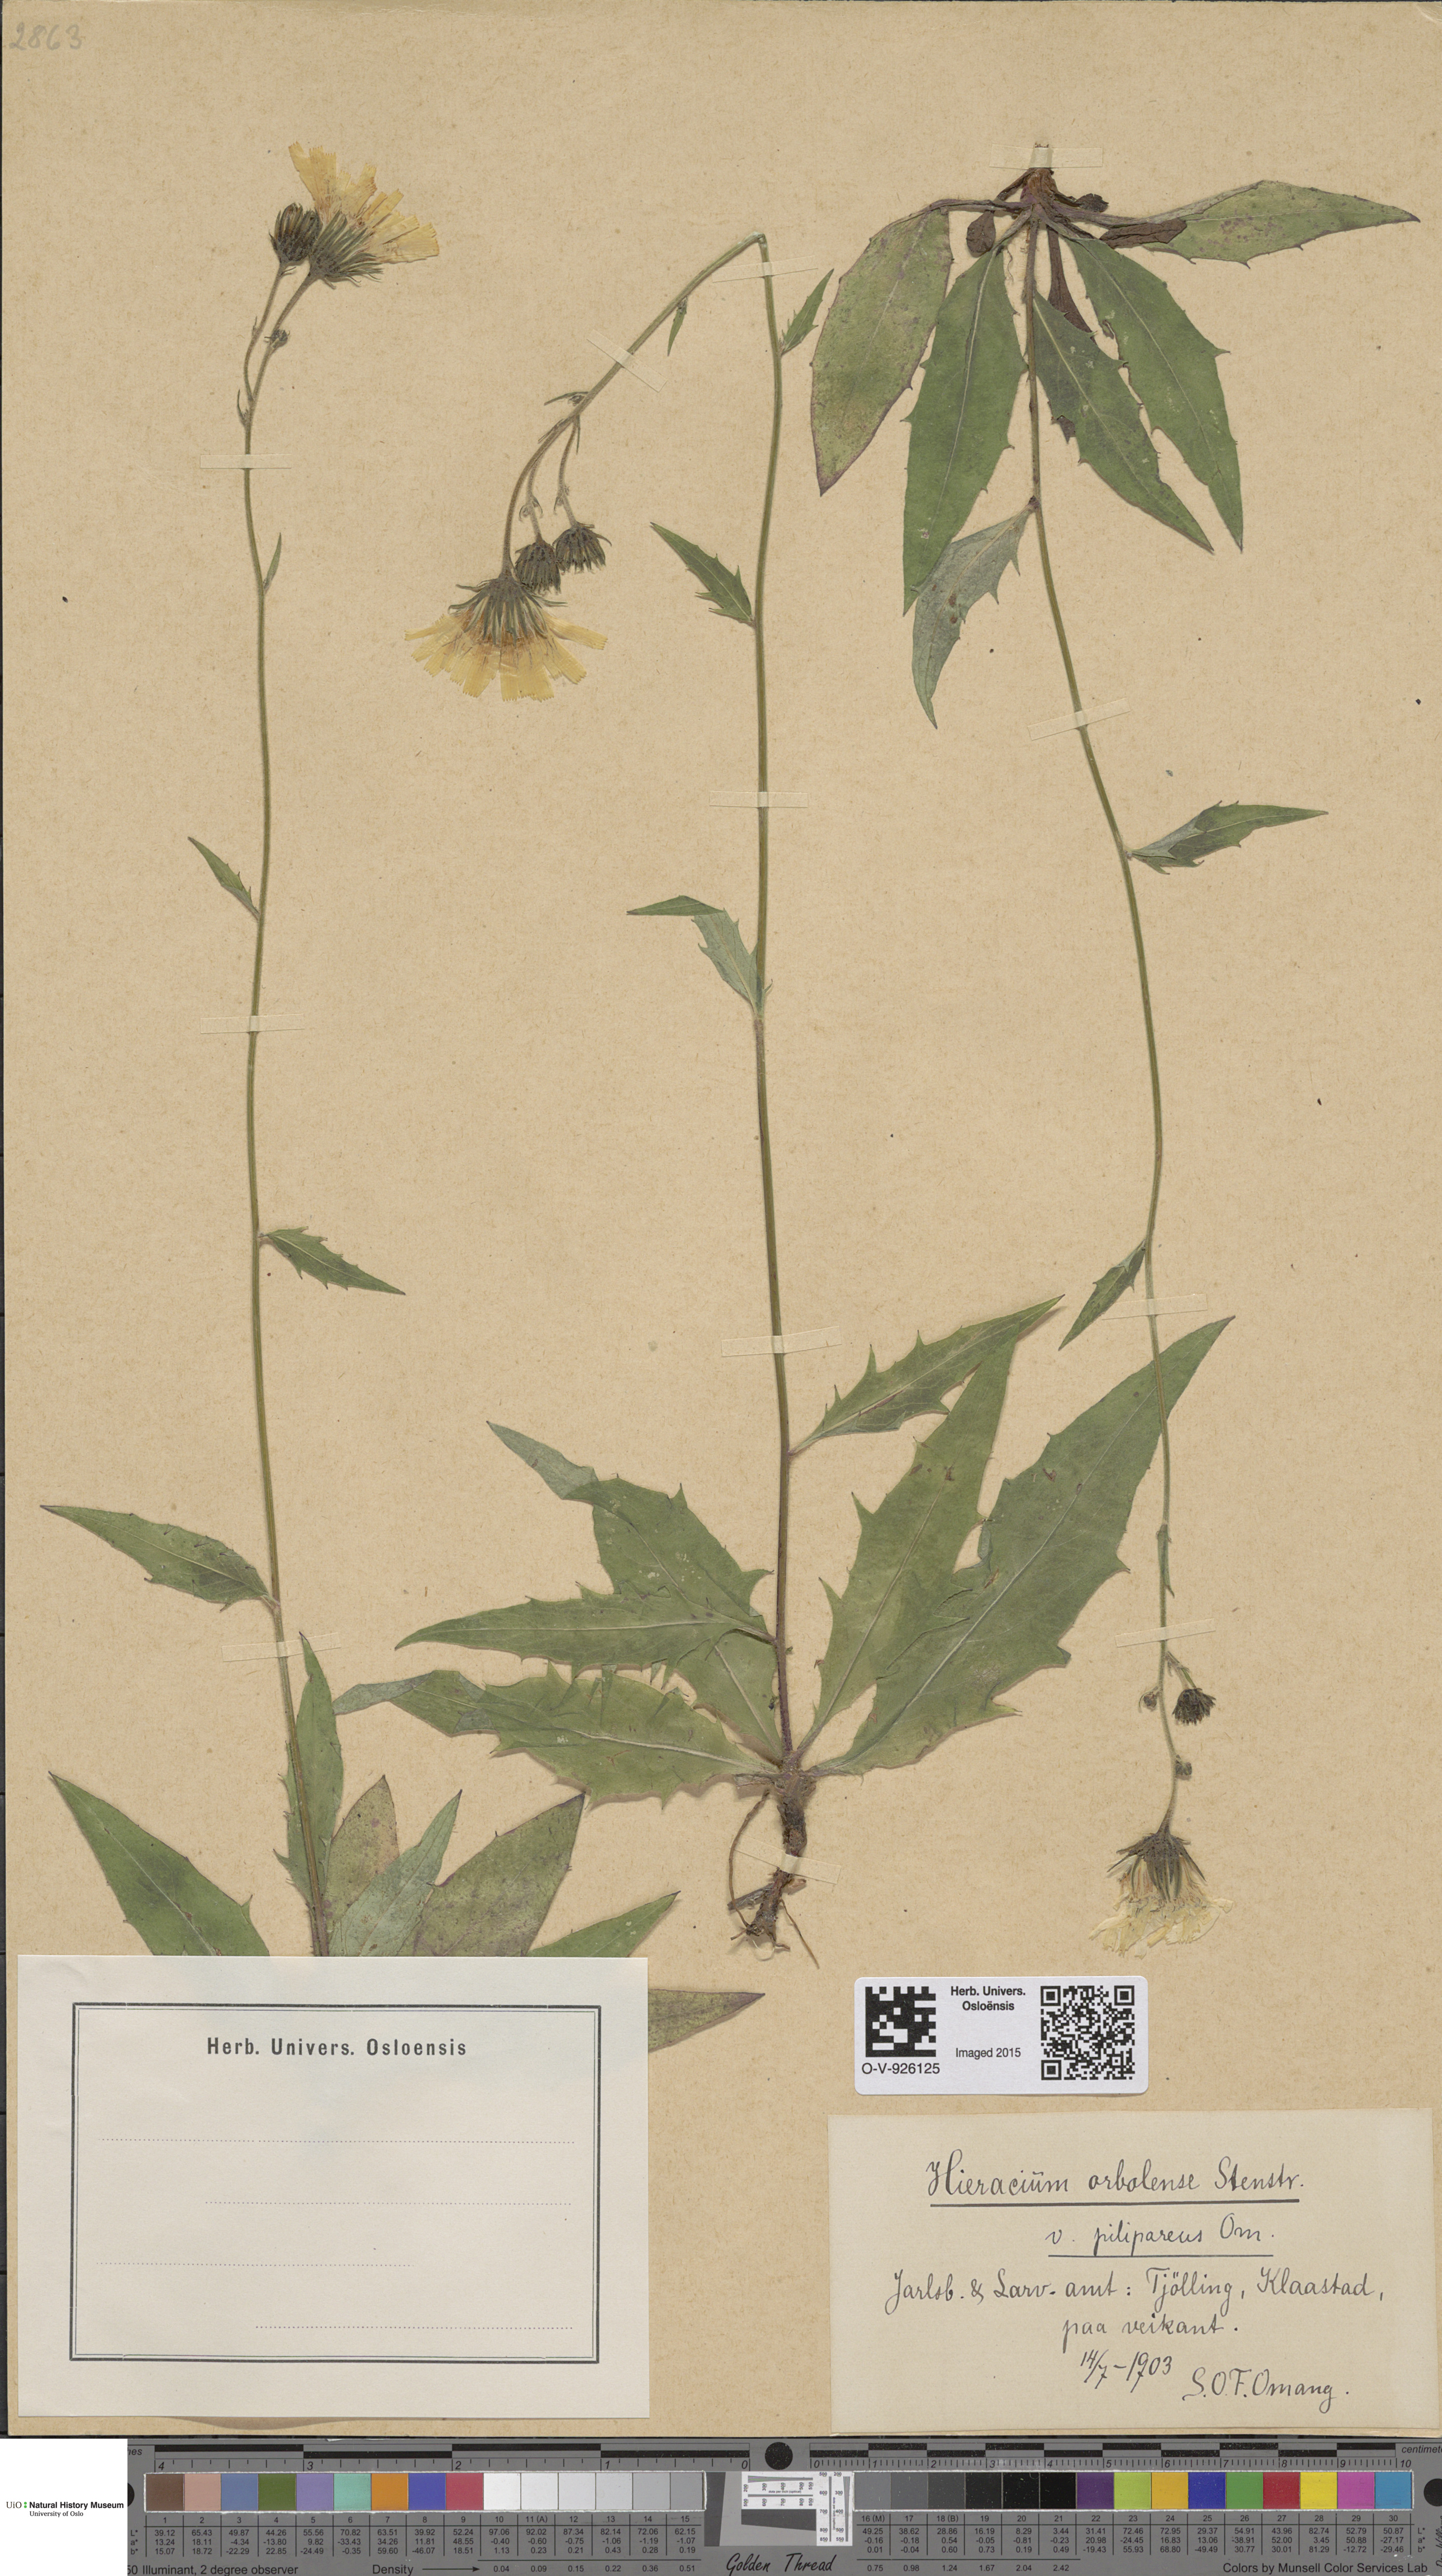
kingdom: Plantae
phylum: Tracheophyta
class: Magnoliopsida
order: Asterales
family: Asteraceae
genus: Hieracium
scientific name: Hieracium orbolense
